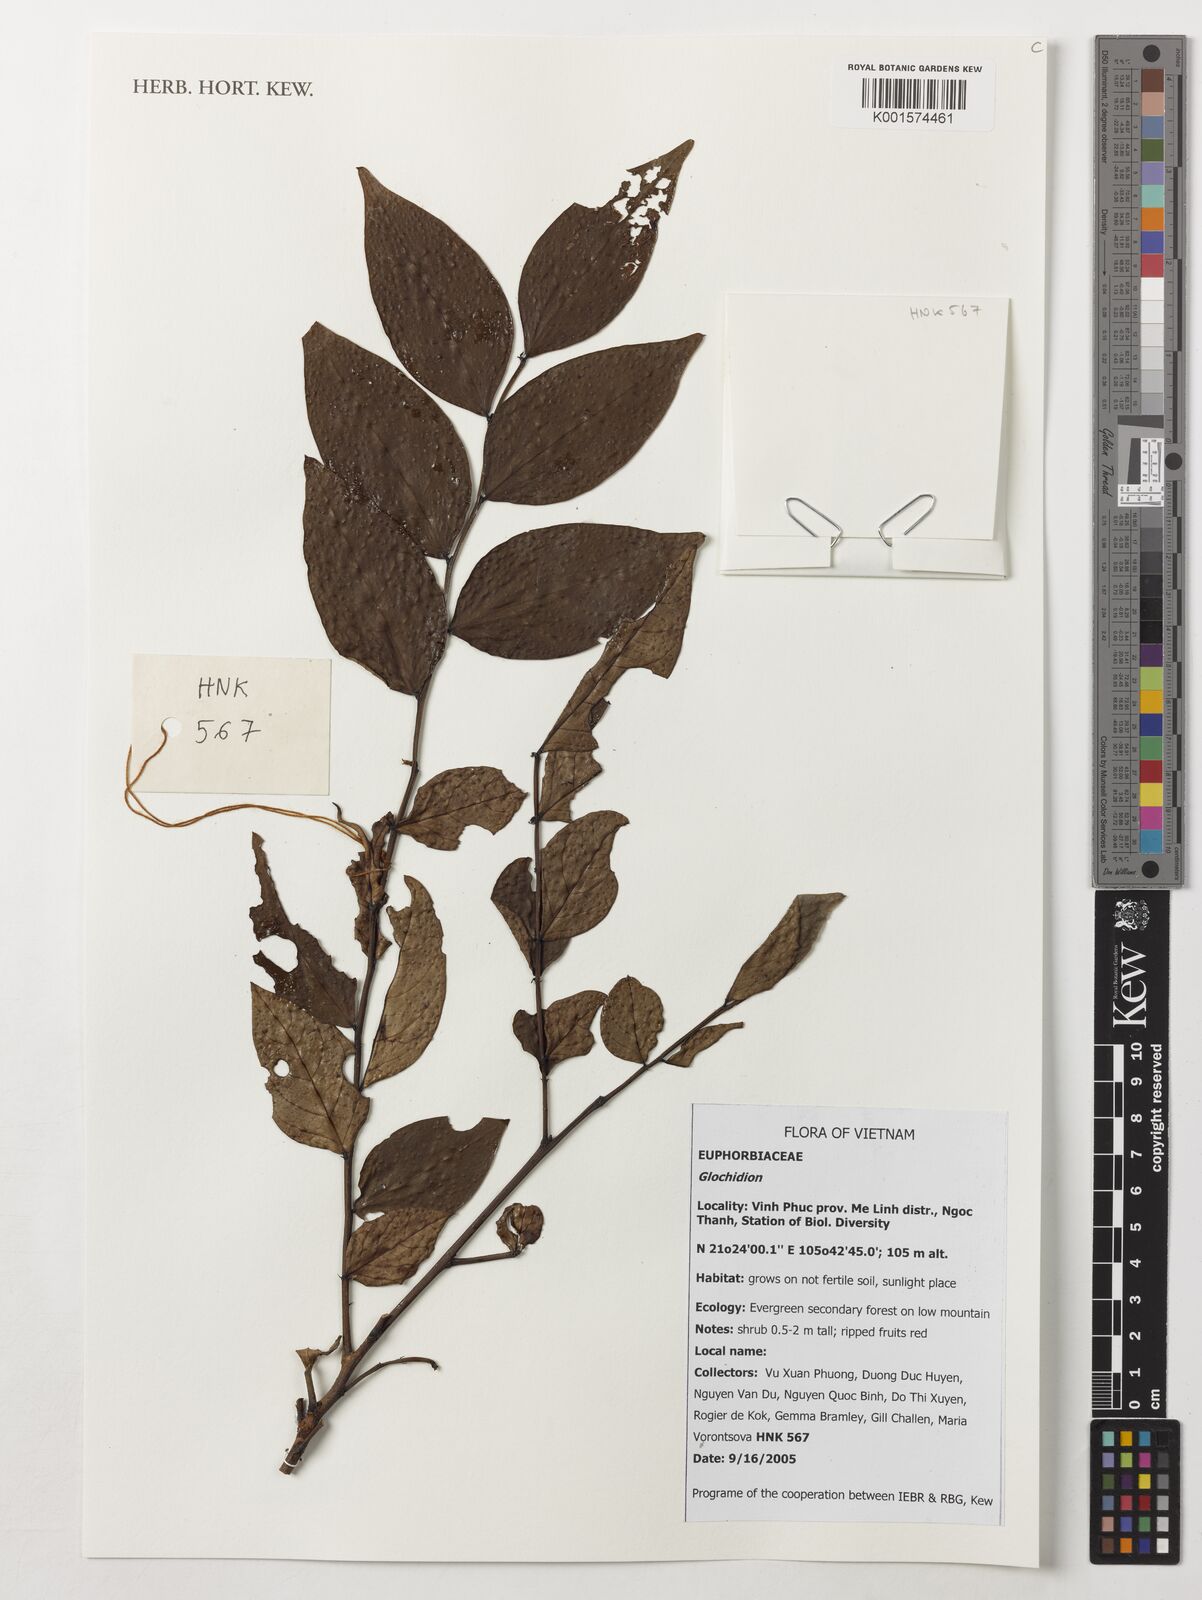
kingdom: Plantae
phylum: Tracheophyta
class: Magnoliopsida
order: Malpighiales
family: Phyllanthaceae
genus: Glochidion
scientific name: Glochidion
